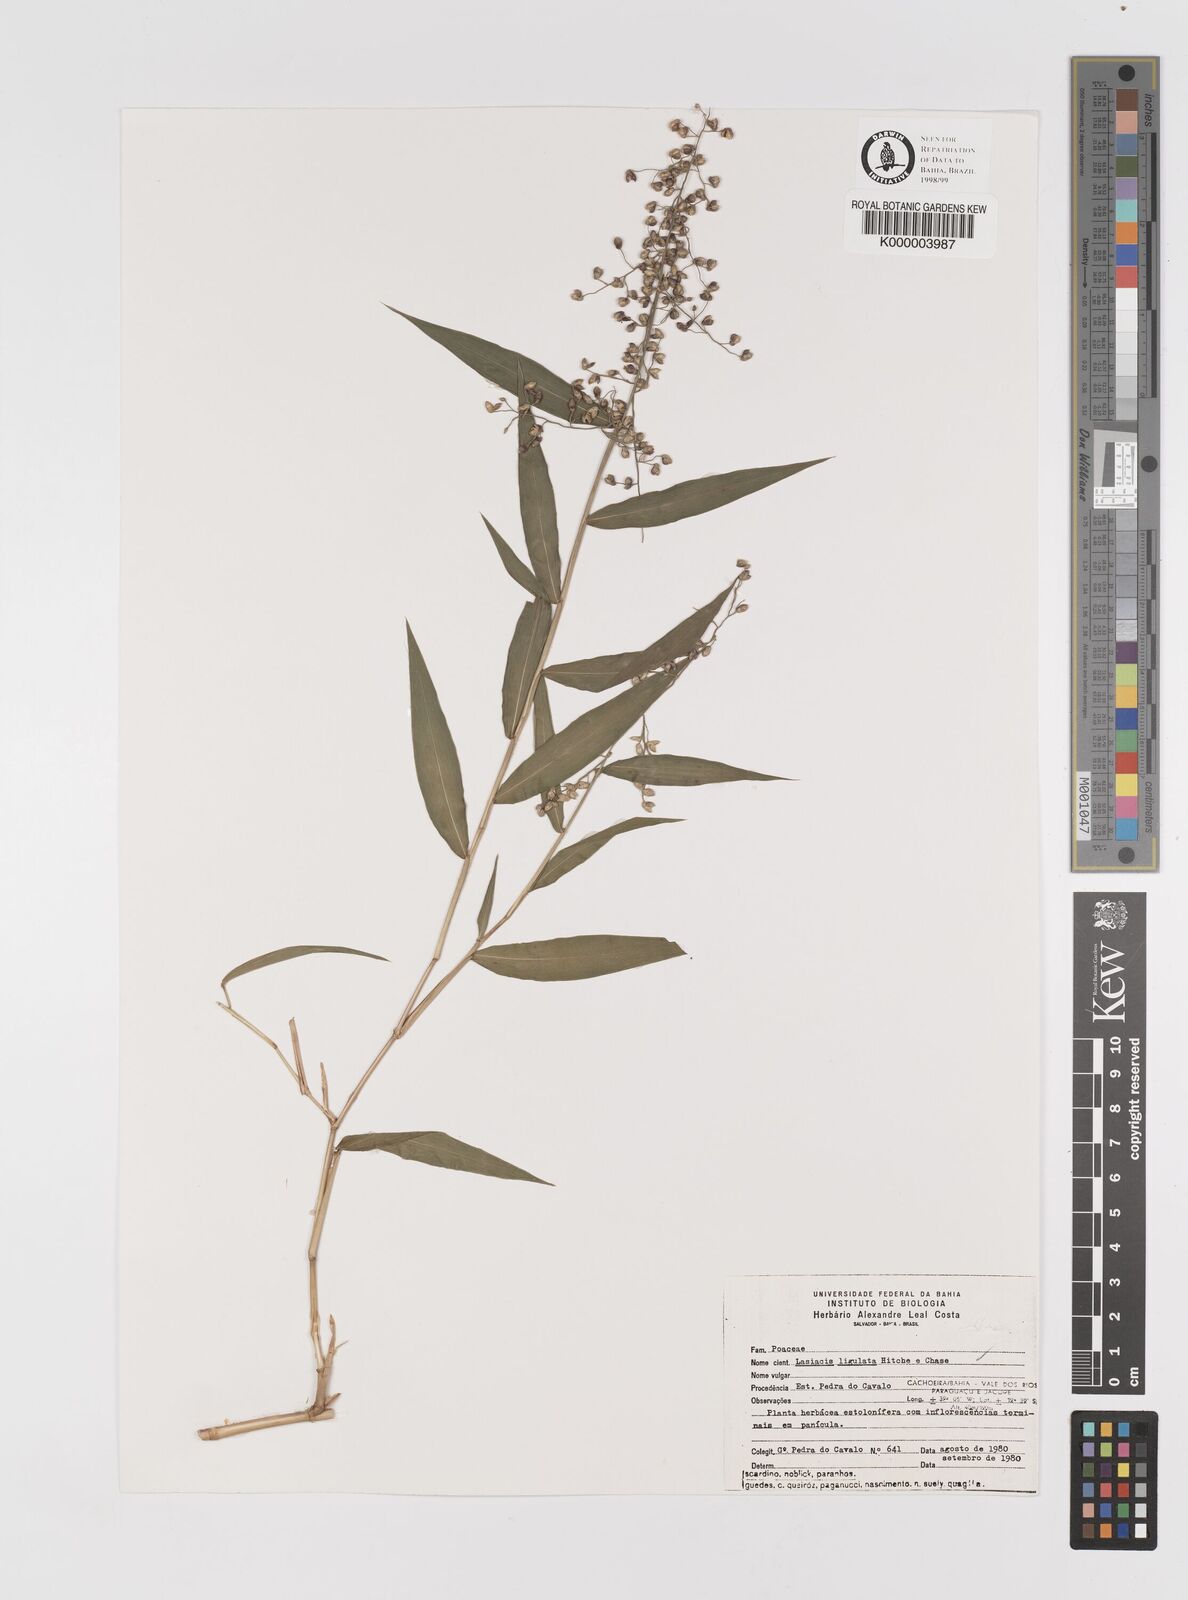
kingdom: Plantae
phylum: Tracheophyta
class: Liliopsida
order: Poales
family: Poaceae
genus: Lasiacis
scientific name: Lasiacis ligulata
